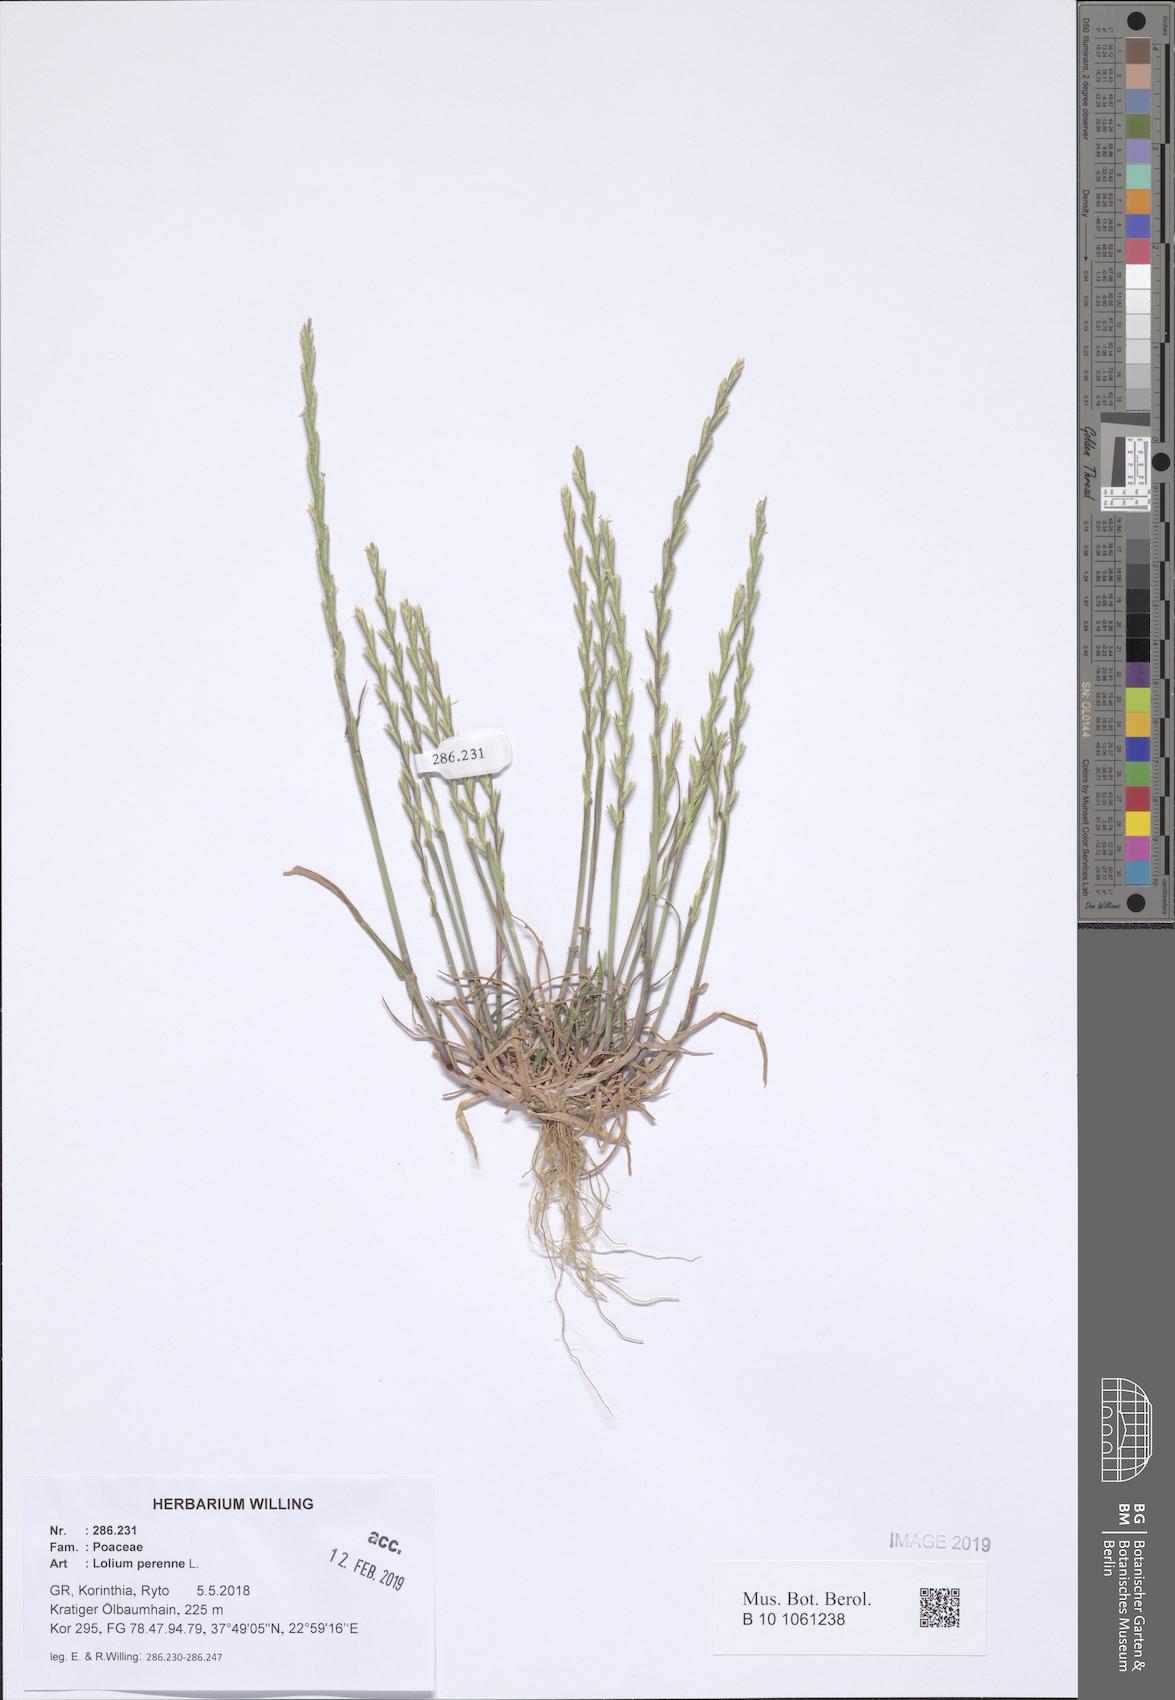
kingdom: Plantae
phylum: Tracheophyta
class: Liliopsida
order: Poales
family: Poaceae
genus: Lolium
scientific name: Lolium perenne
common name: Perennial ryegrass
